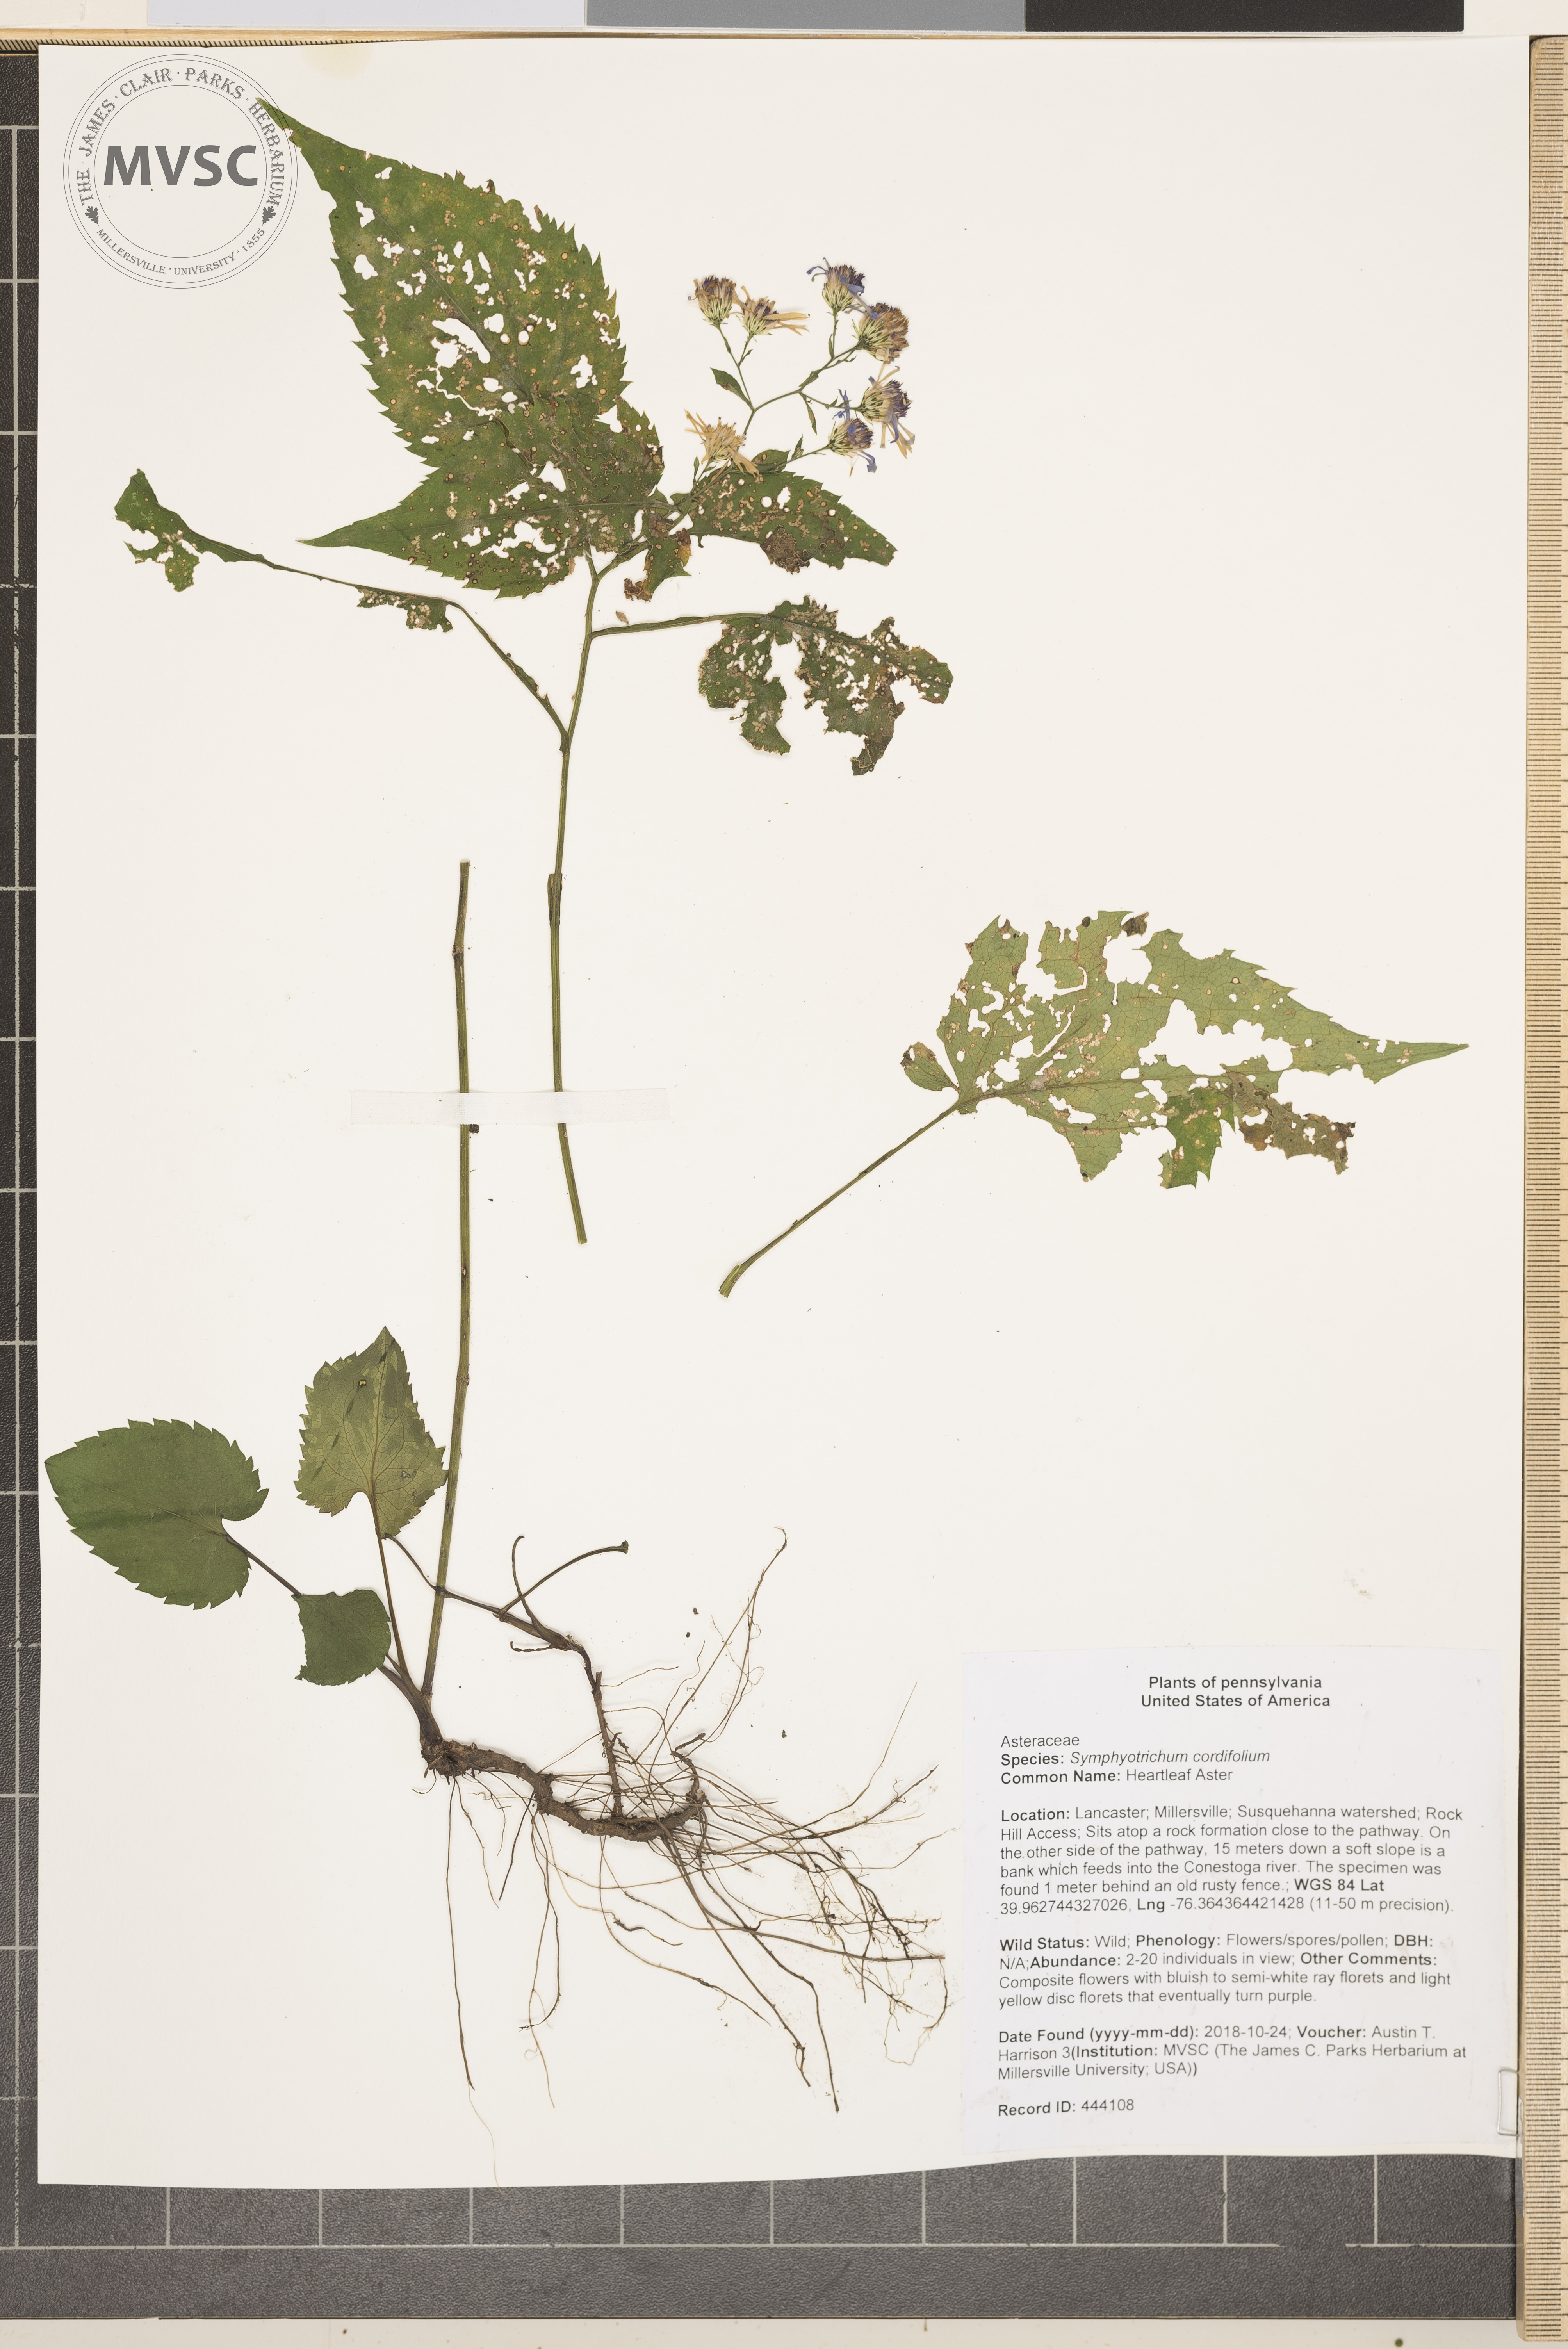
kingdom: Plantae
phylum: Tracheophyta
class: Magnoliopsida
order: Asterales
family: Asteraceae
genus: Symphyotrichum
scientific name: Symphyotrichum cordifolium
